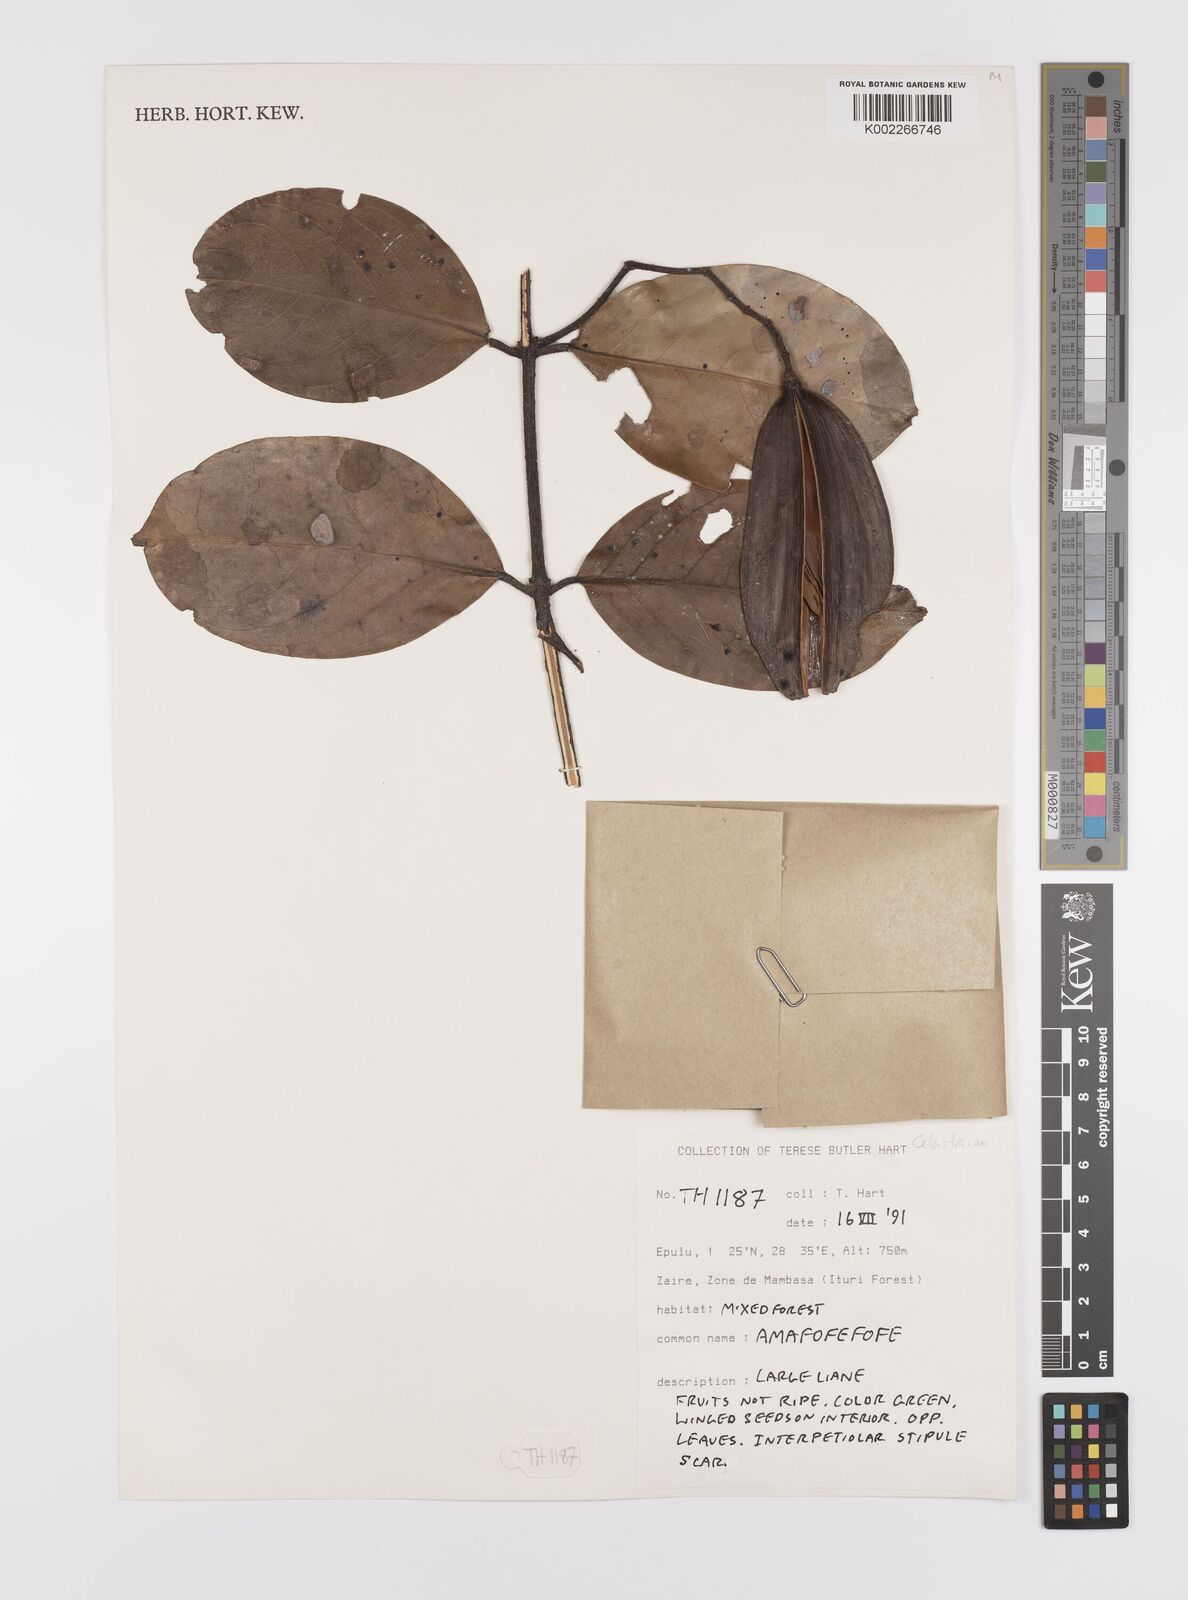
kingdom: Plantae
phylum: Tracheophyta
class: Magnoliopsida
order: Celastrales
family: Celastraceae
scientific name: Celastraceae
